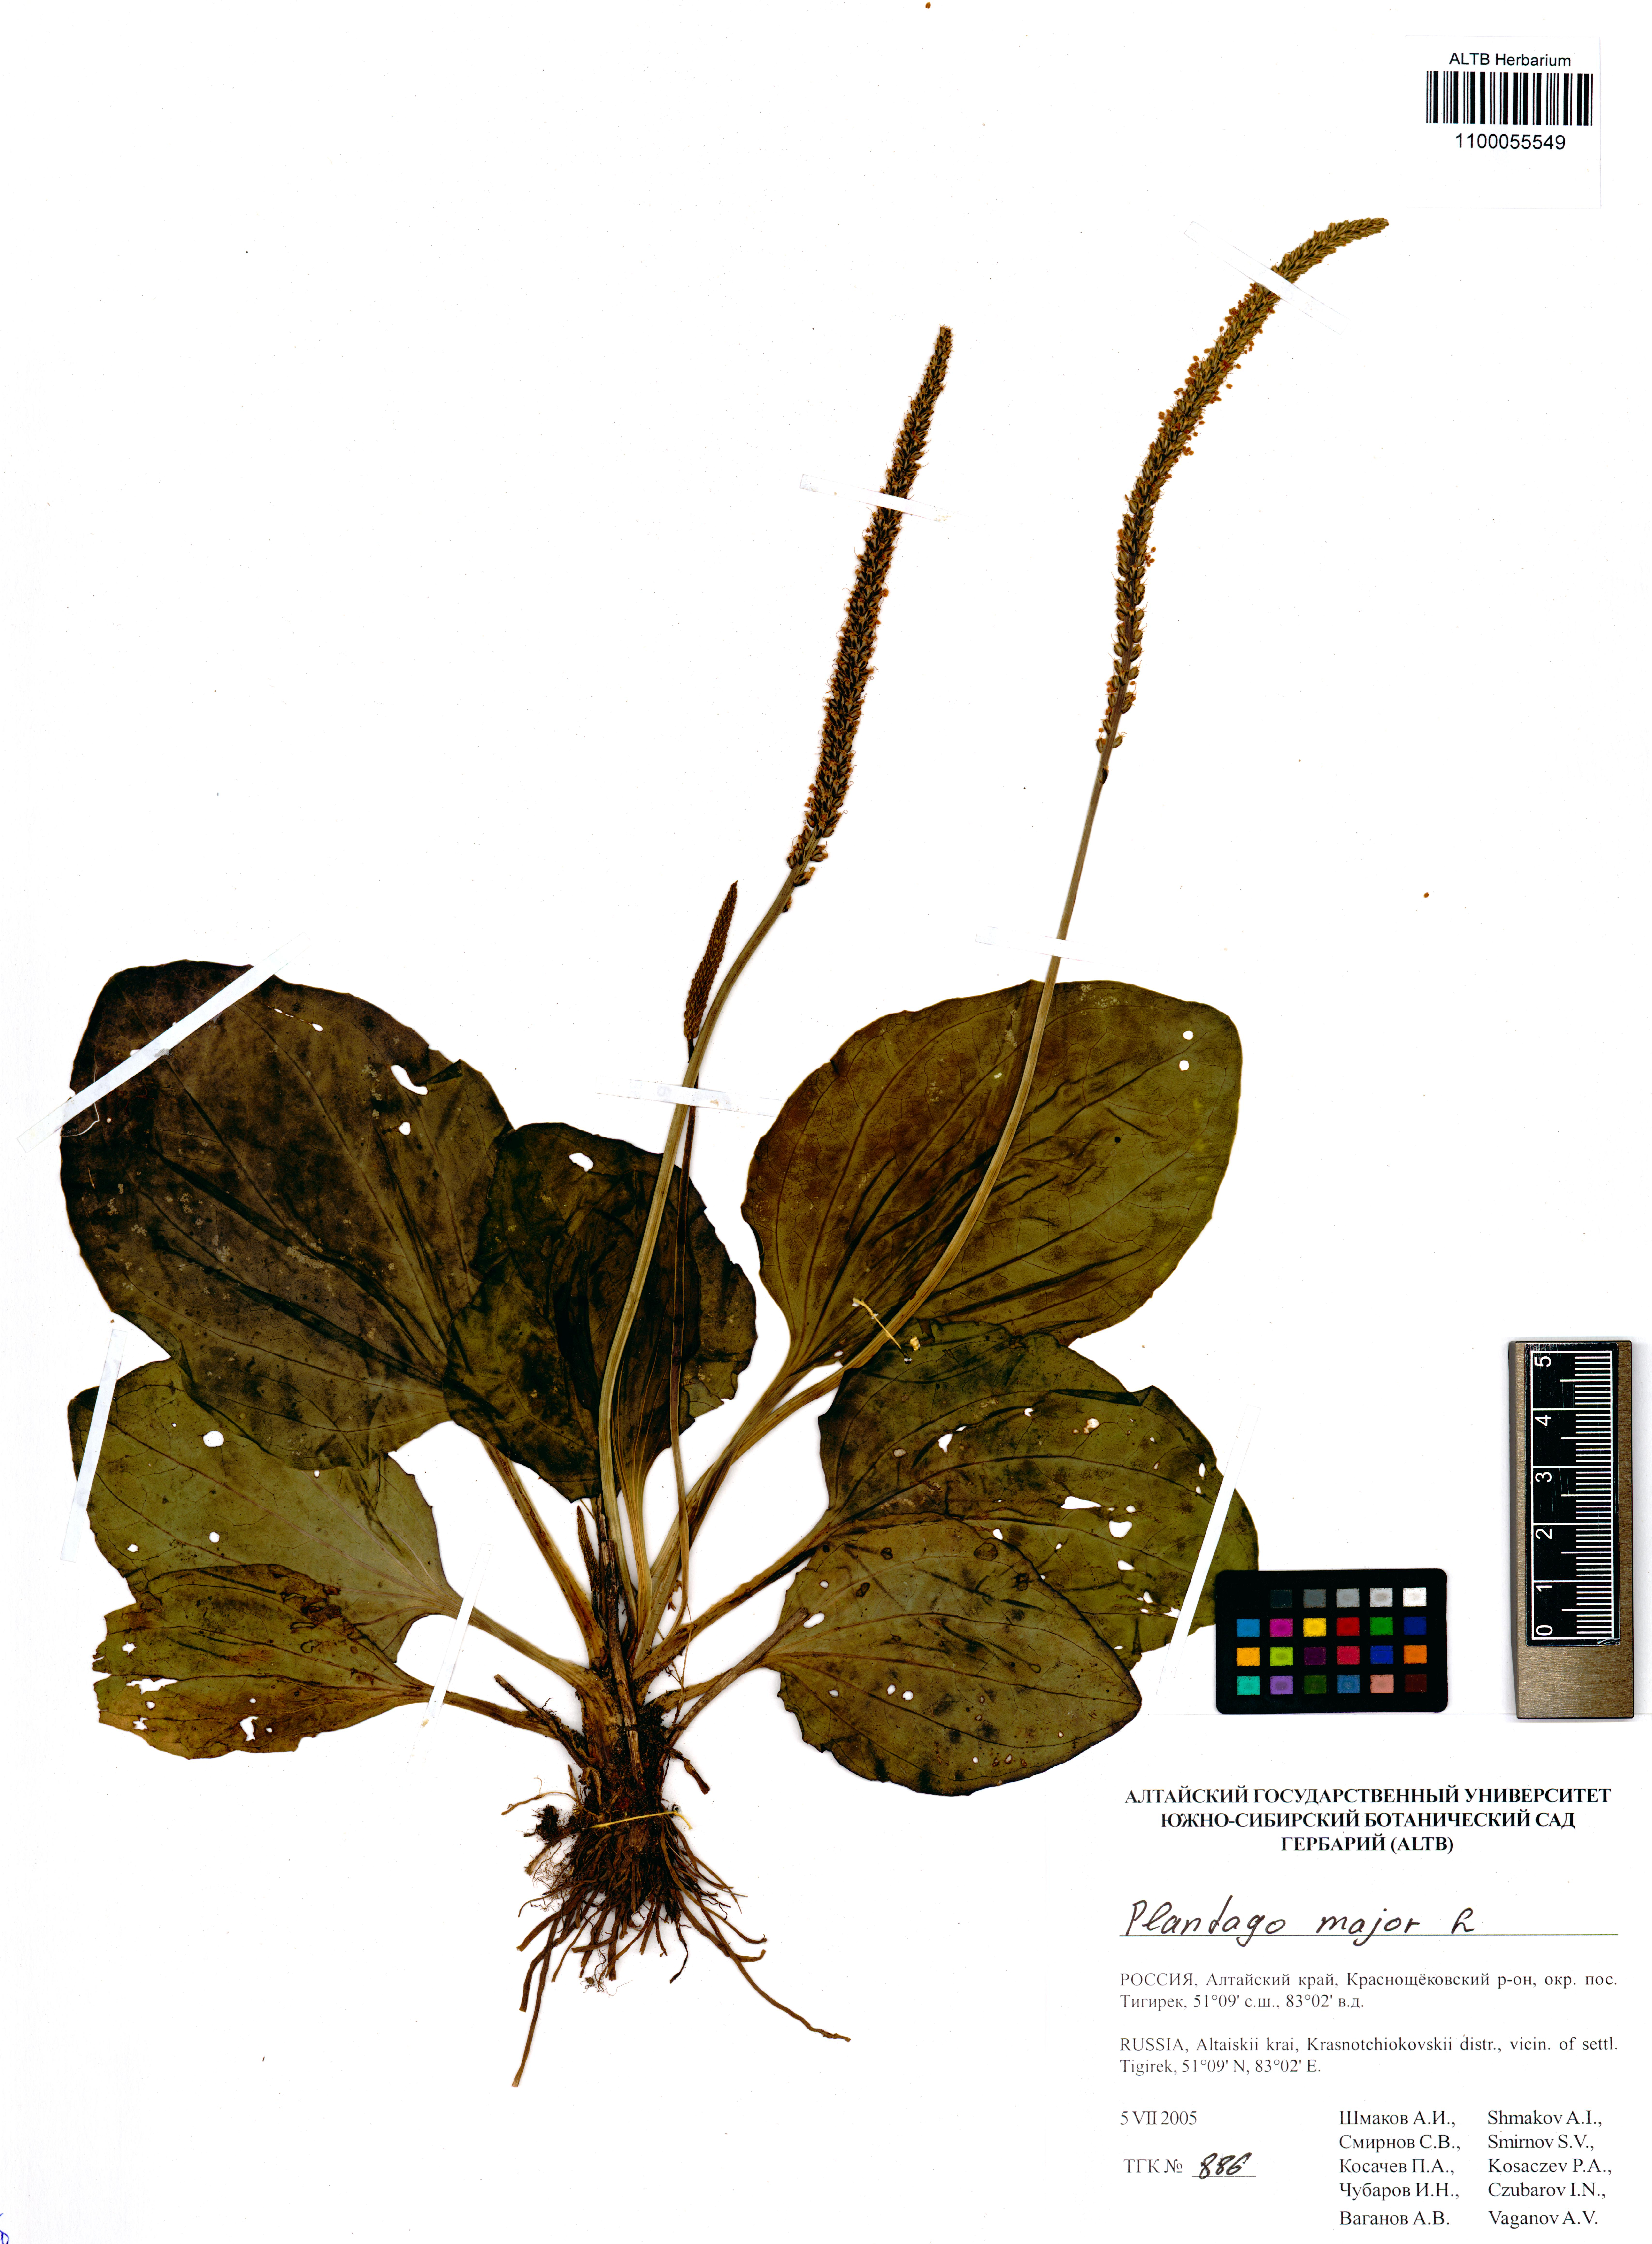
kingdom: Plantae
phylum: Tracheophyta
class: Magnoliopsida
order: Lamiales
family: Plantaginaceae
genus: Plantago
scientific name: Plantago major
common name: Common plantain
